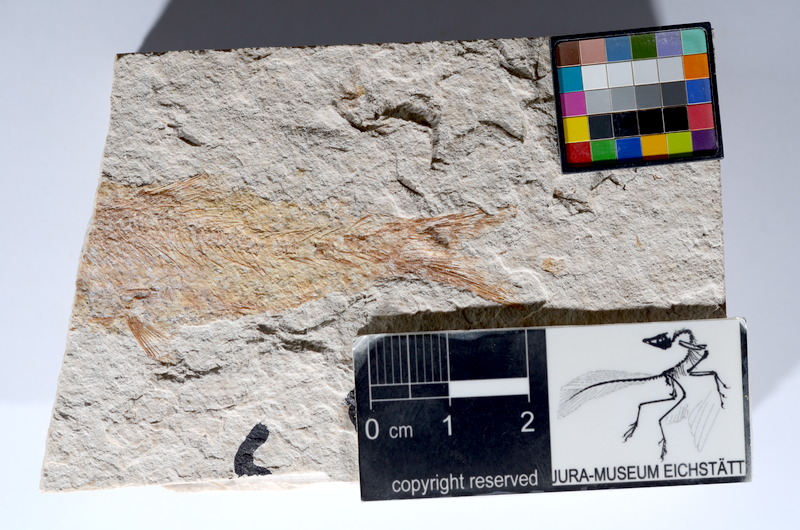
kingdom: Animalia
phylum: Chordata
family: Ascalaboidae
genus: Tharsis
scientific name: Tharsis dubius
